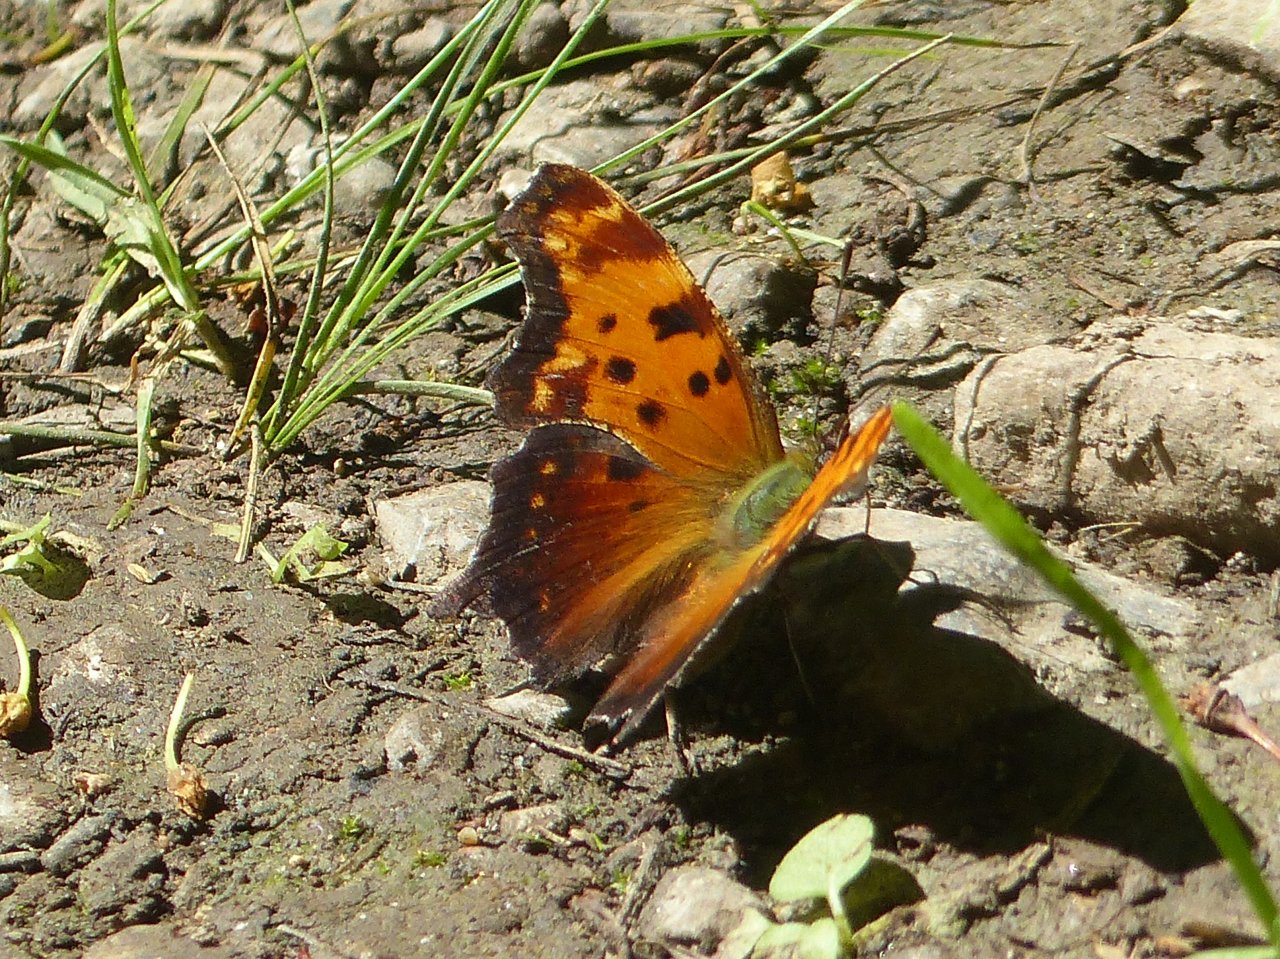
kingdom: Animalia
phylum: Arthropoda
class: Insecta
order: Lepidoptera
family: Nymphalidae
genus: Polygonia
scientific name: Polygonia progne
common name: Gray Comma
